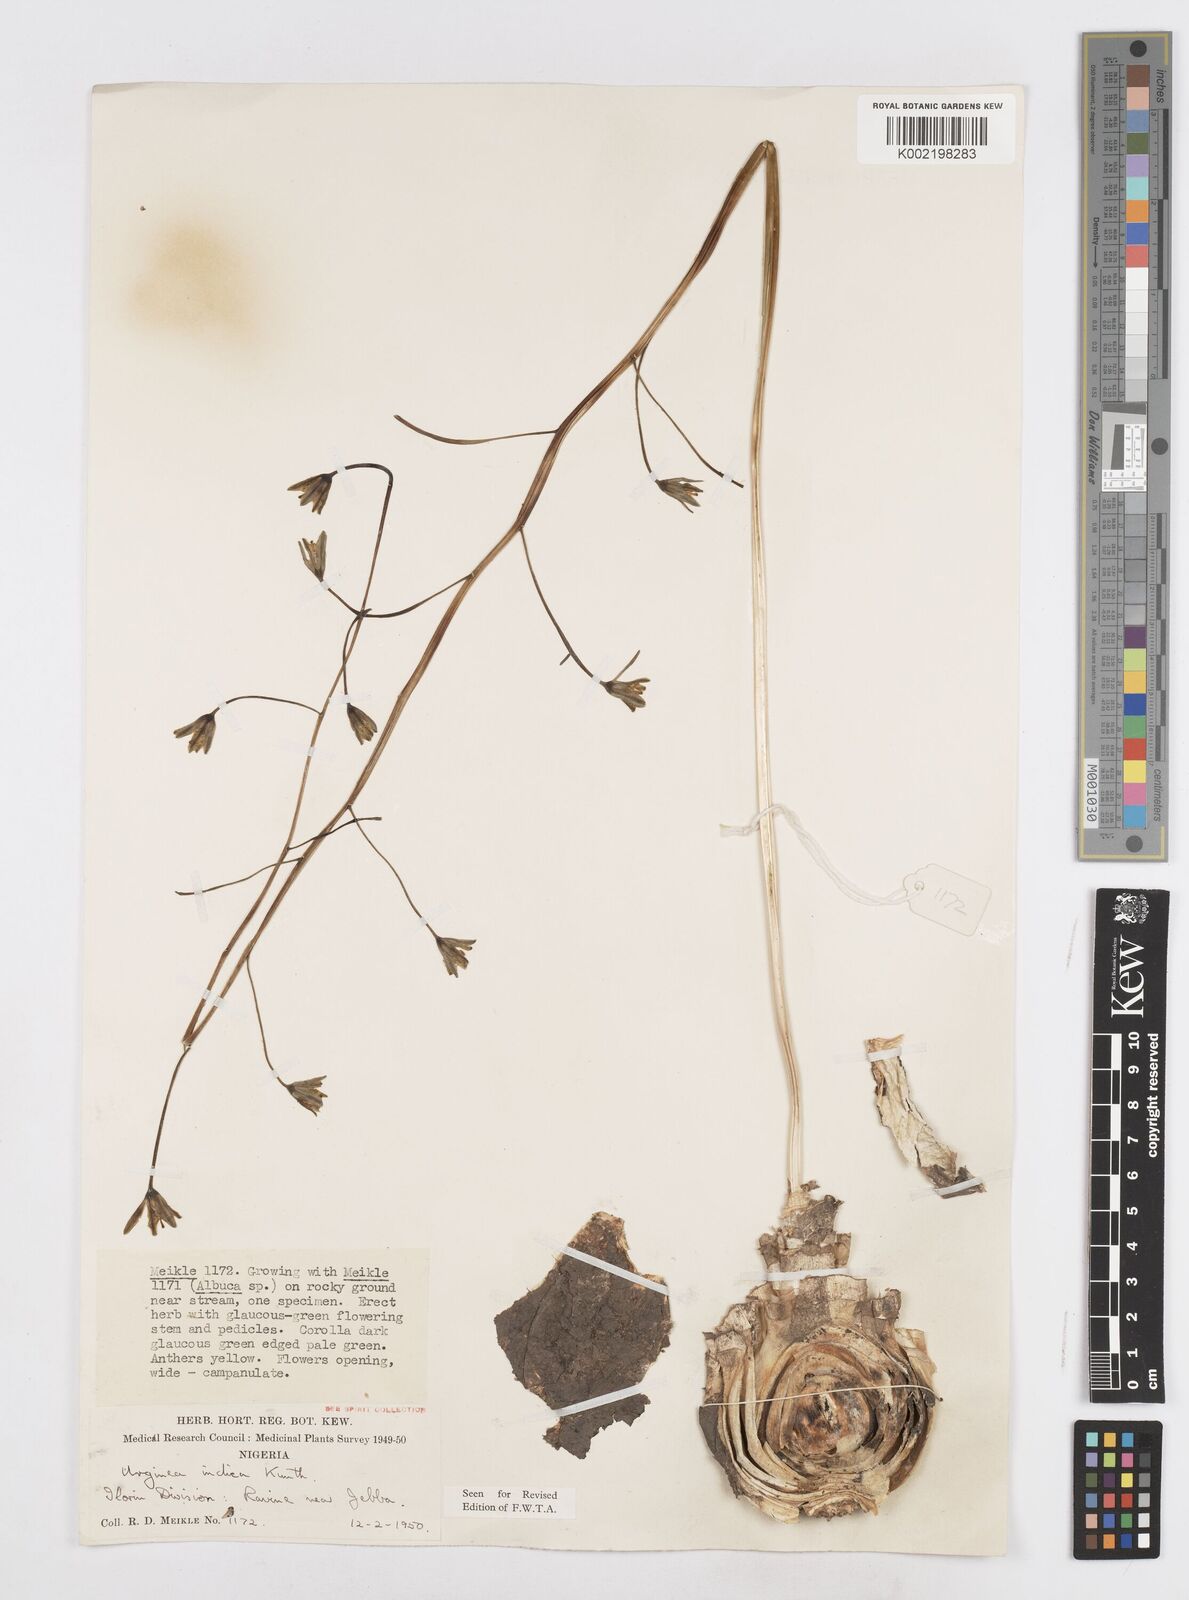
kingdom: Plantae
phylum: Tracheophyta
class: Liliopsida
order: Asparagales
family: Asparagaceae
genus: Drimia
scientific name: Drimia indica
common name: Indian-squill
